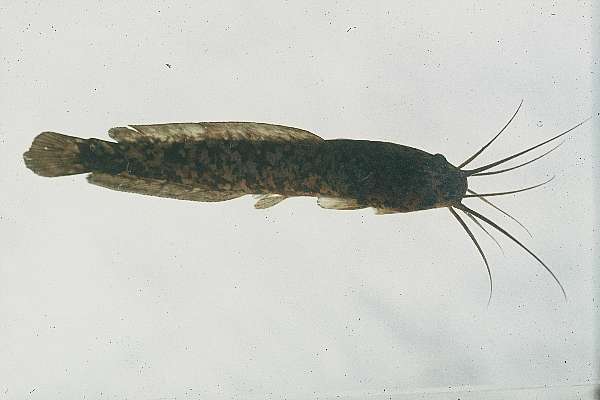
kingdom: Animalia
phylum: Chordata
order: Siluriformes
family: Clariidae
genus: Clarias
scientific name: Clarias ngamensis
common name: Blunt-toothed african catfish
